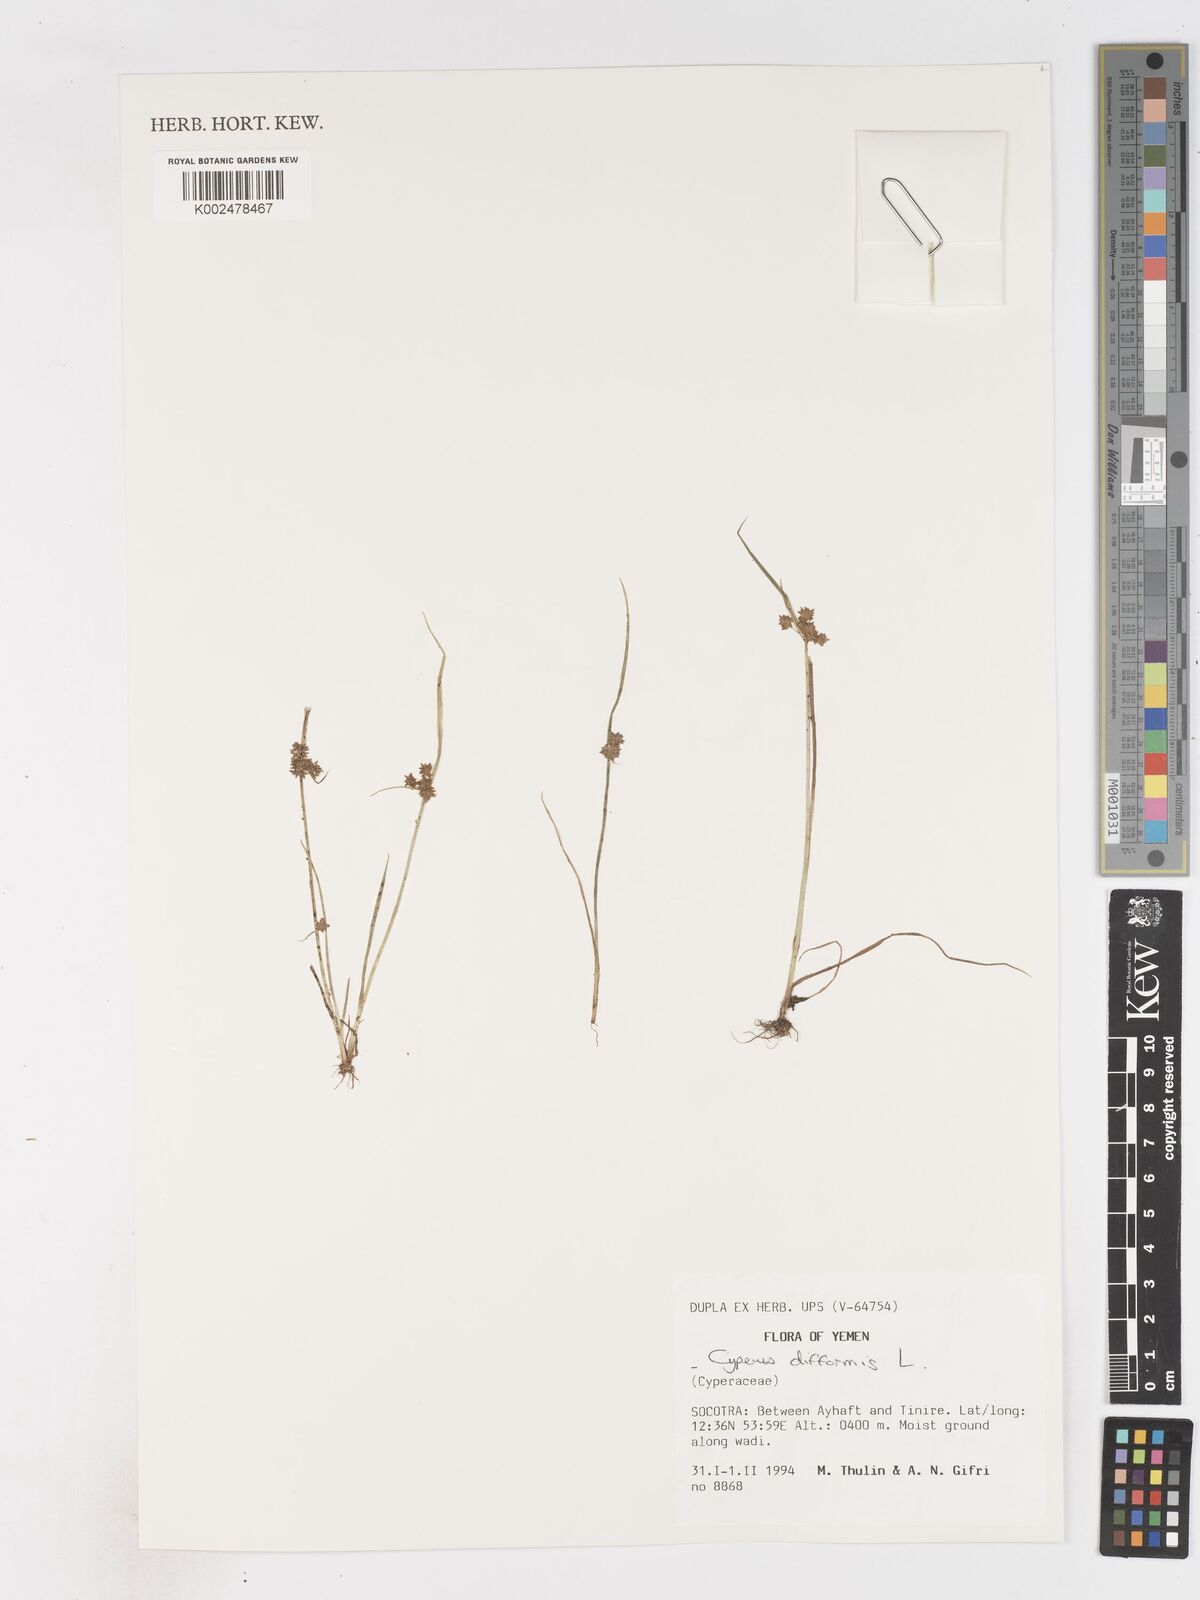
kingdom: Plantae
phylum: Tracheophyta
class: Liliopsida
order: Poales
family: Cyperaceae
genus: Cyperus
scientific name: Cyperus difformis
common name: Variable flatsedge
